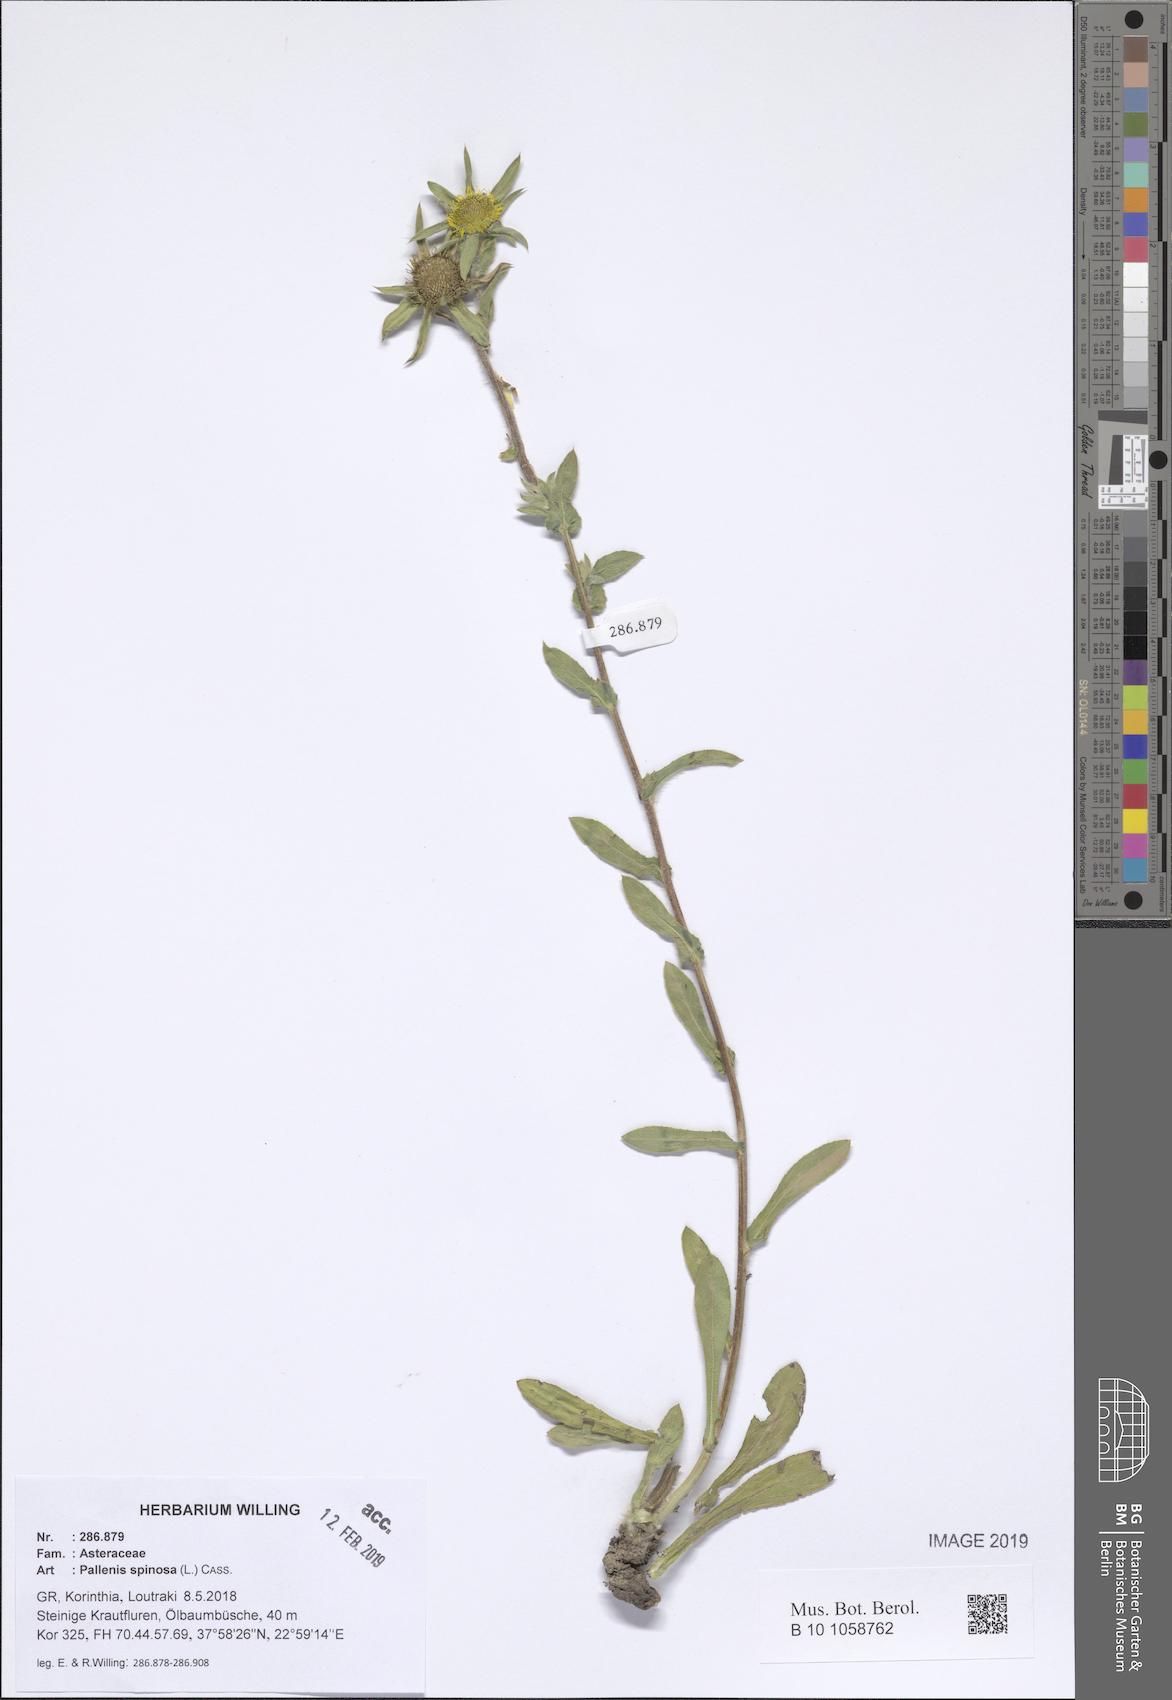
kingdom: Plantae
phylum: Tracheophyta
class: Magnoliopsida
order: Asterales
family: Asteraceae
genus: Pallenis
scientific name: Pallenis spinosa
